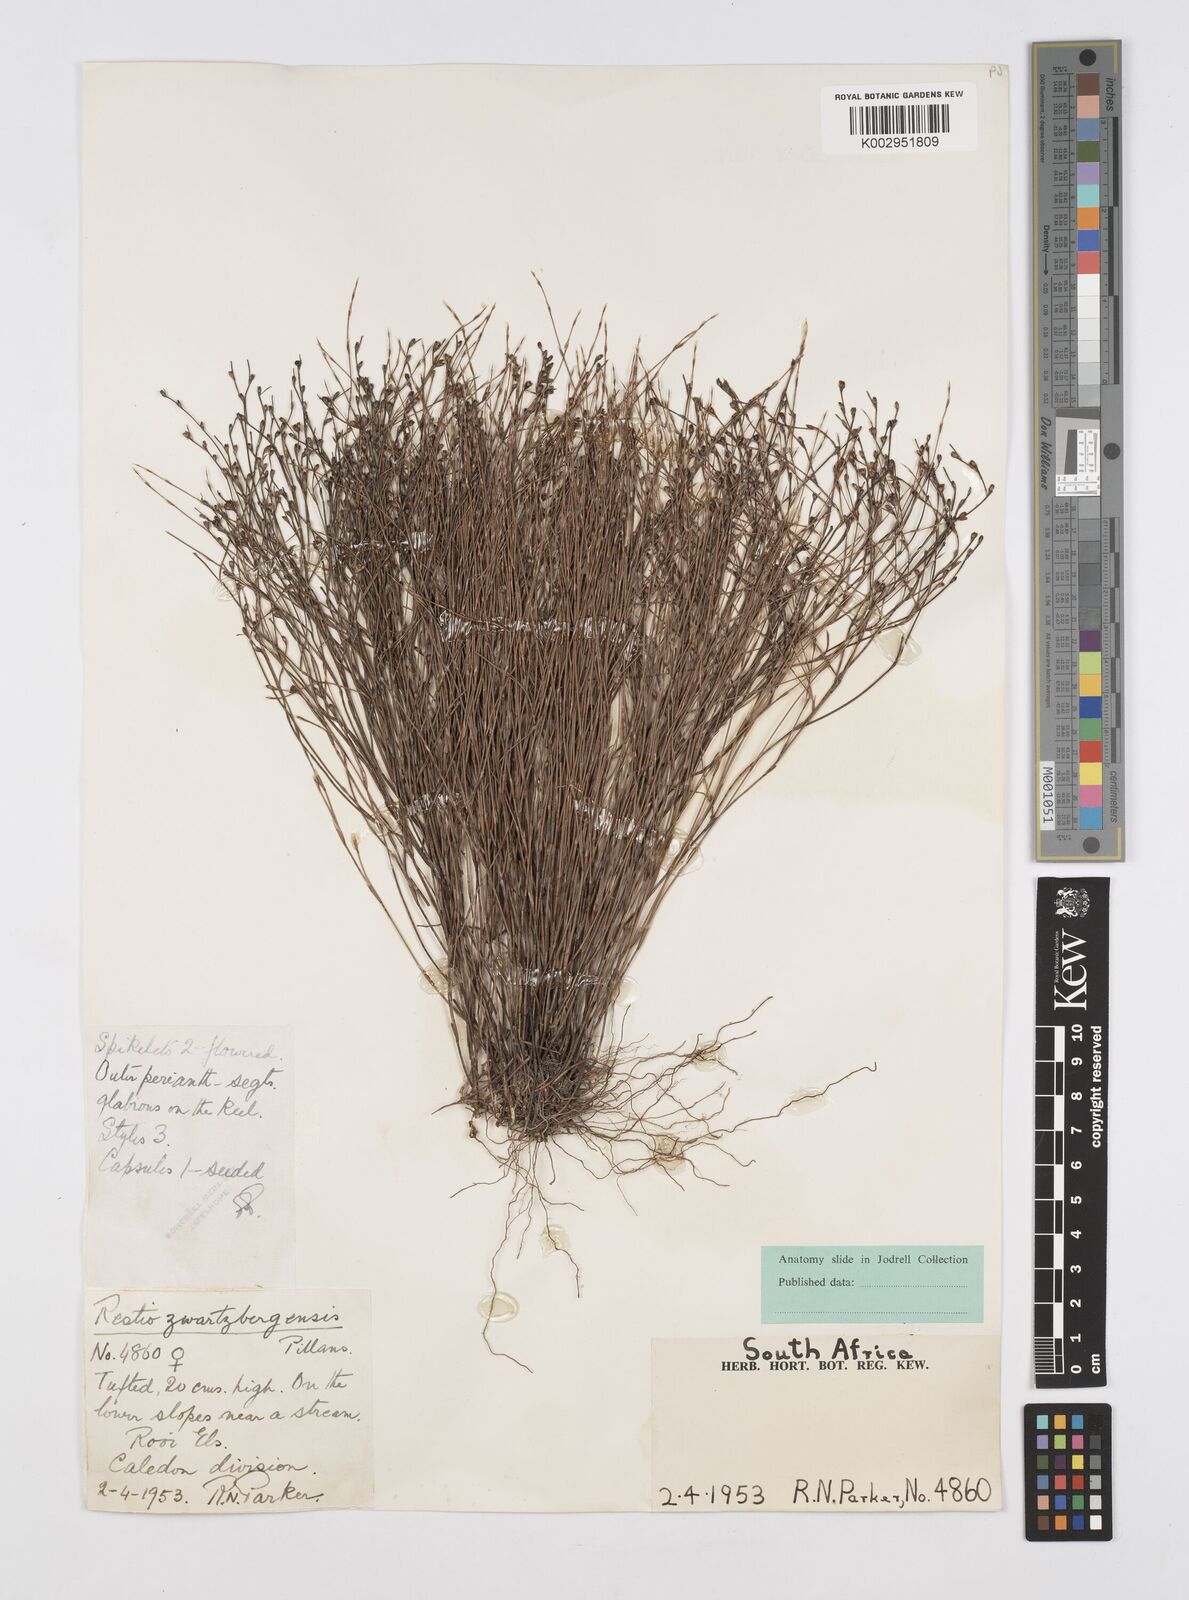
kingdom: Plantae
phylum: Tracheophyta
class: Liliopsida
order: Poales
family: Restionaceae
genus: Restio
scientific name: Restio zwartbergensis
